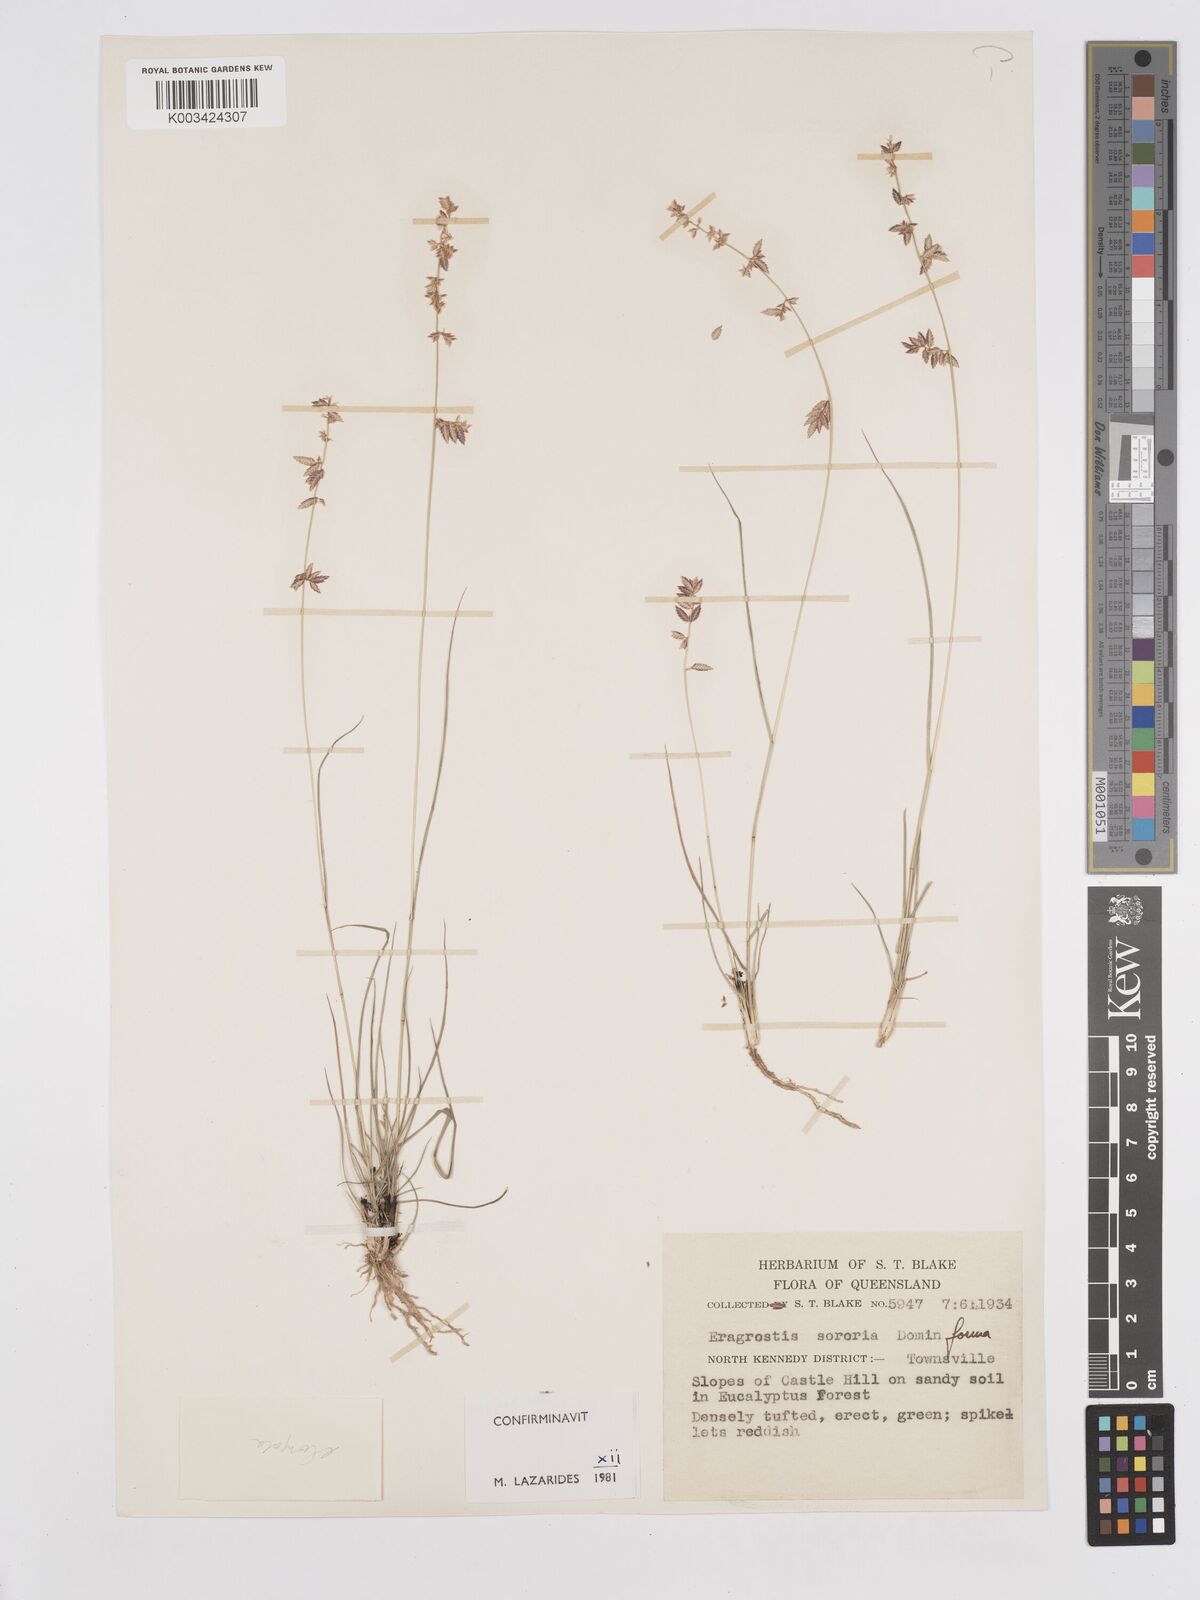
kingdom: Plantae
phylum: Tracheophyta
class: Liliopsida
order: Poales
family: Poaceae
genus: Eragrostis
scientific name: Eragrostis sororia
